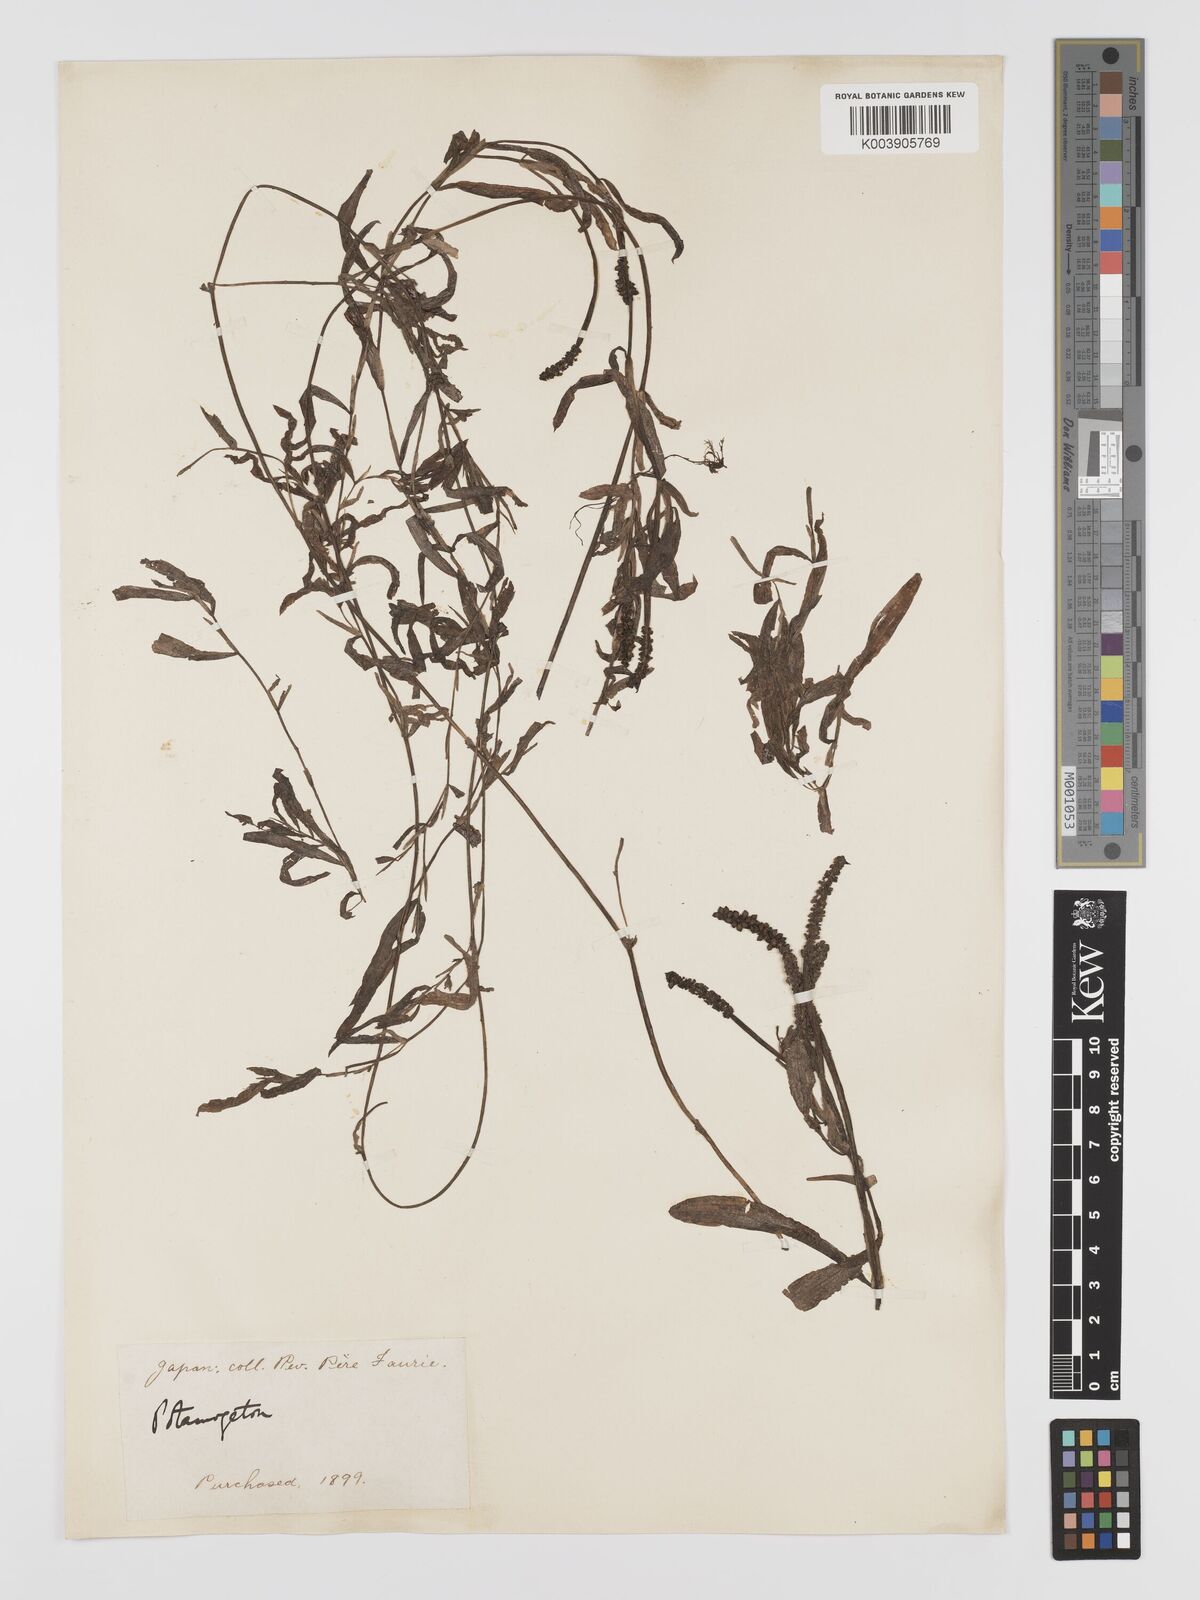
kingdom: Plantae
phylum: Tracheophyta
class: Liliopsida
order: Alismatales
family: Potamogetonaceae
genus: Potamogeton
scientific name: Potamogeton gramineus
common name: Various-leaved pondweed
